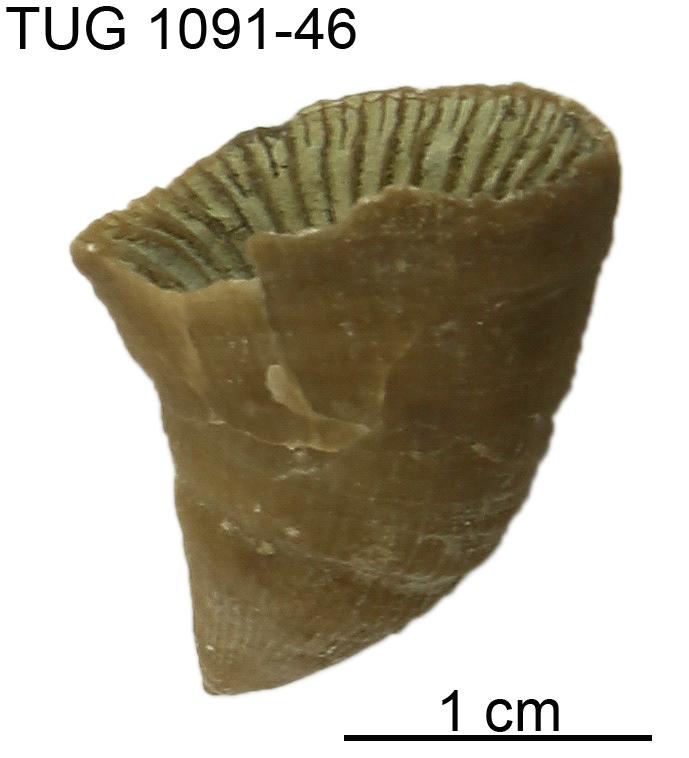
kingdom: Animalia
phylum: Cnidaria
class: Anthozoa
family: Tryplasmatidae
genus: Tryplasma
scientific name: Tryplasma
